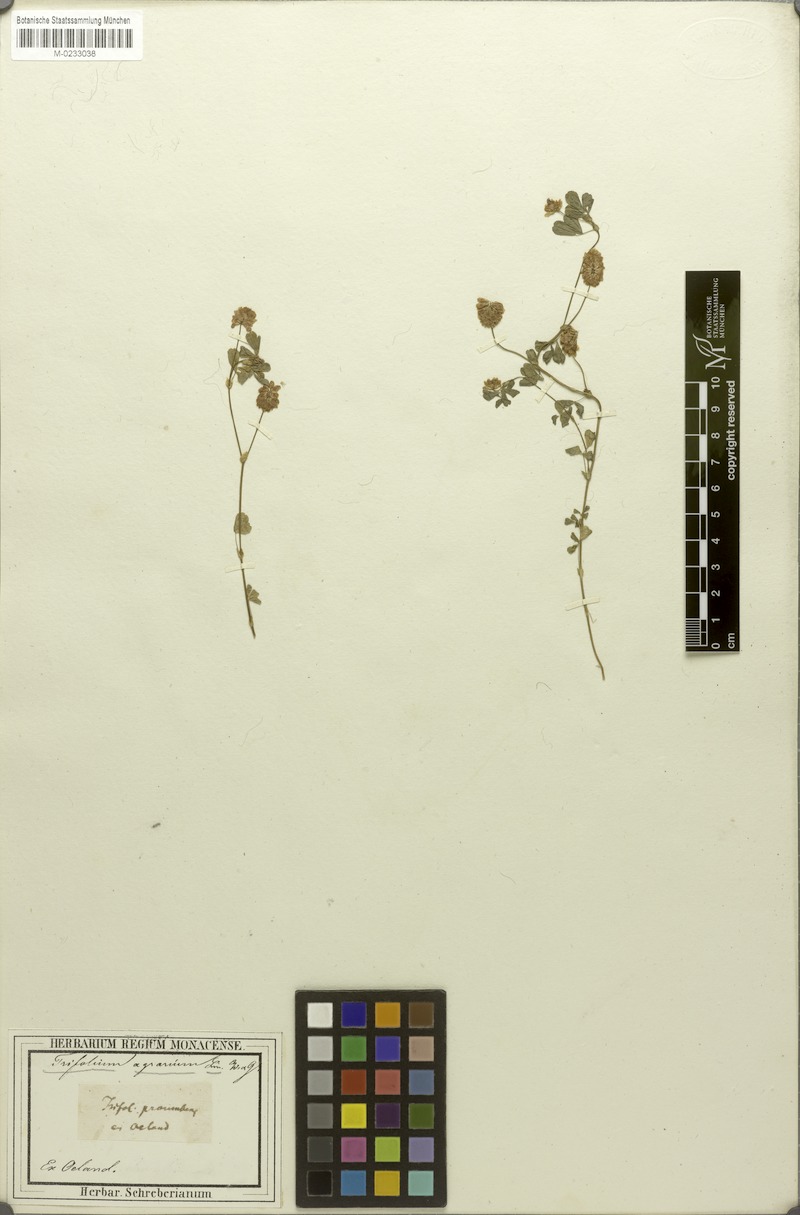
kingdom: Plantae
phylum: Tracheophyta
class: Magnoliopsida
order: Fabales
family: Fabaceae
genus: Trifolium
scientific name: Trifolium campestre
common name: Field clover
